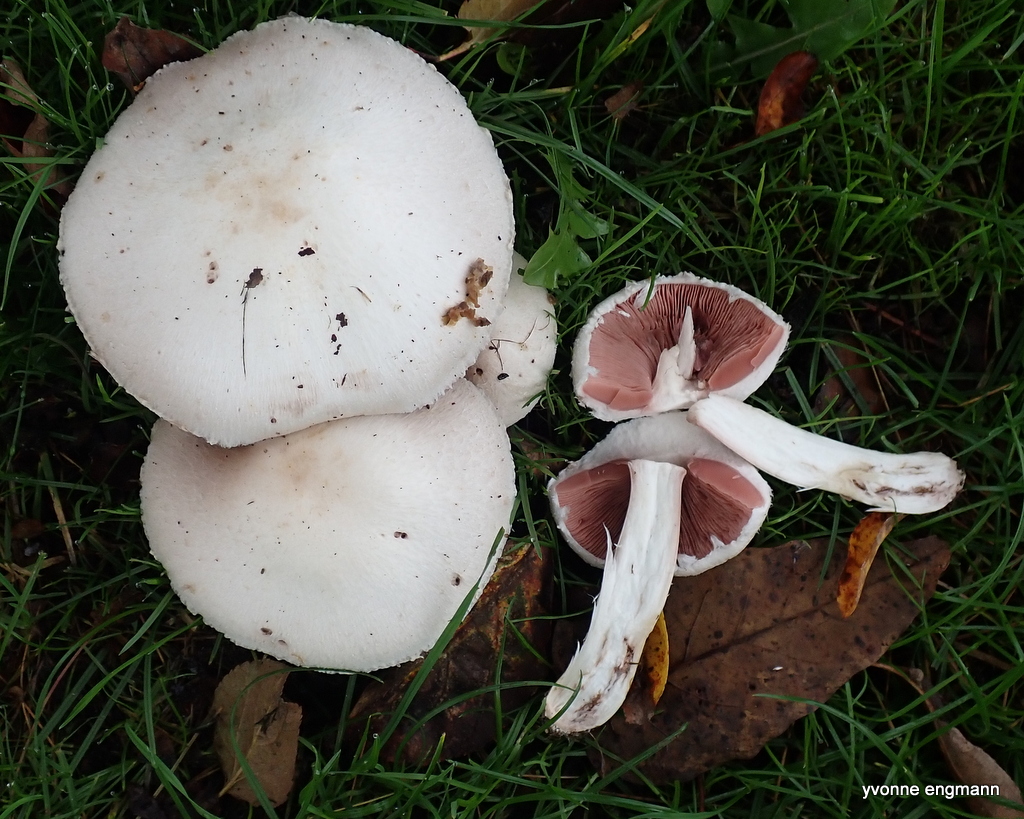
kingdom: Fungi
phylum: Basidiomycota
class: Agaricomycetes
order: Agaricales
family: Agaricaceae
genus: Agaricus
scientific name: Agaricus campestris
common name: mark-champignon
